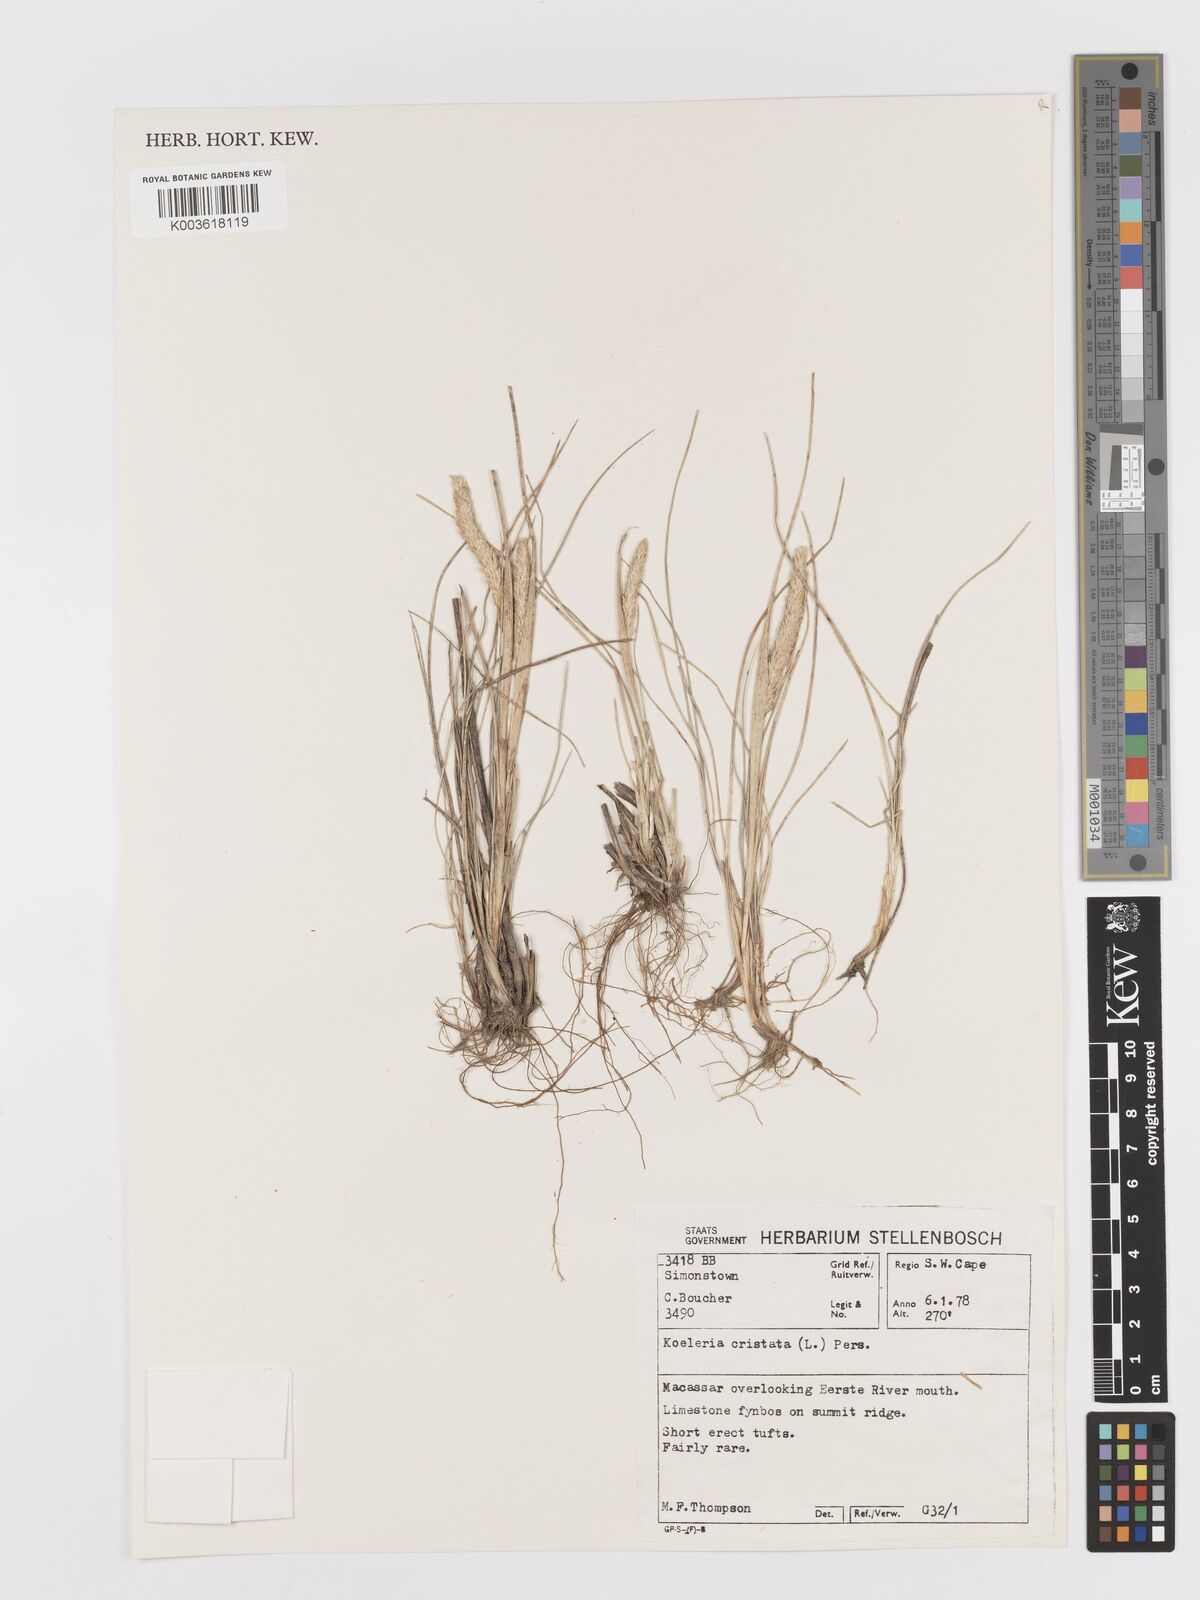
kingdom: Plantae
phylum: Tracheophyta
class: Liliopsida
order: Poales
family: Poaceae
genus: Koeleria
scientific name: Koeleria capensis
